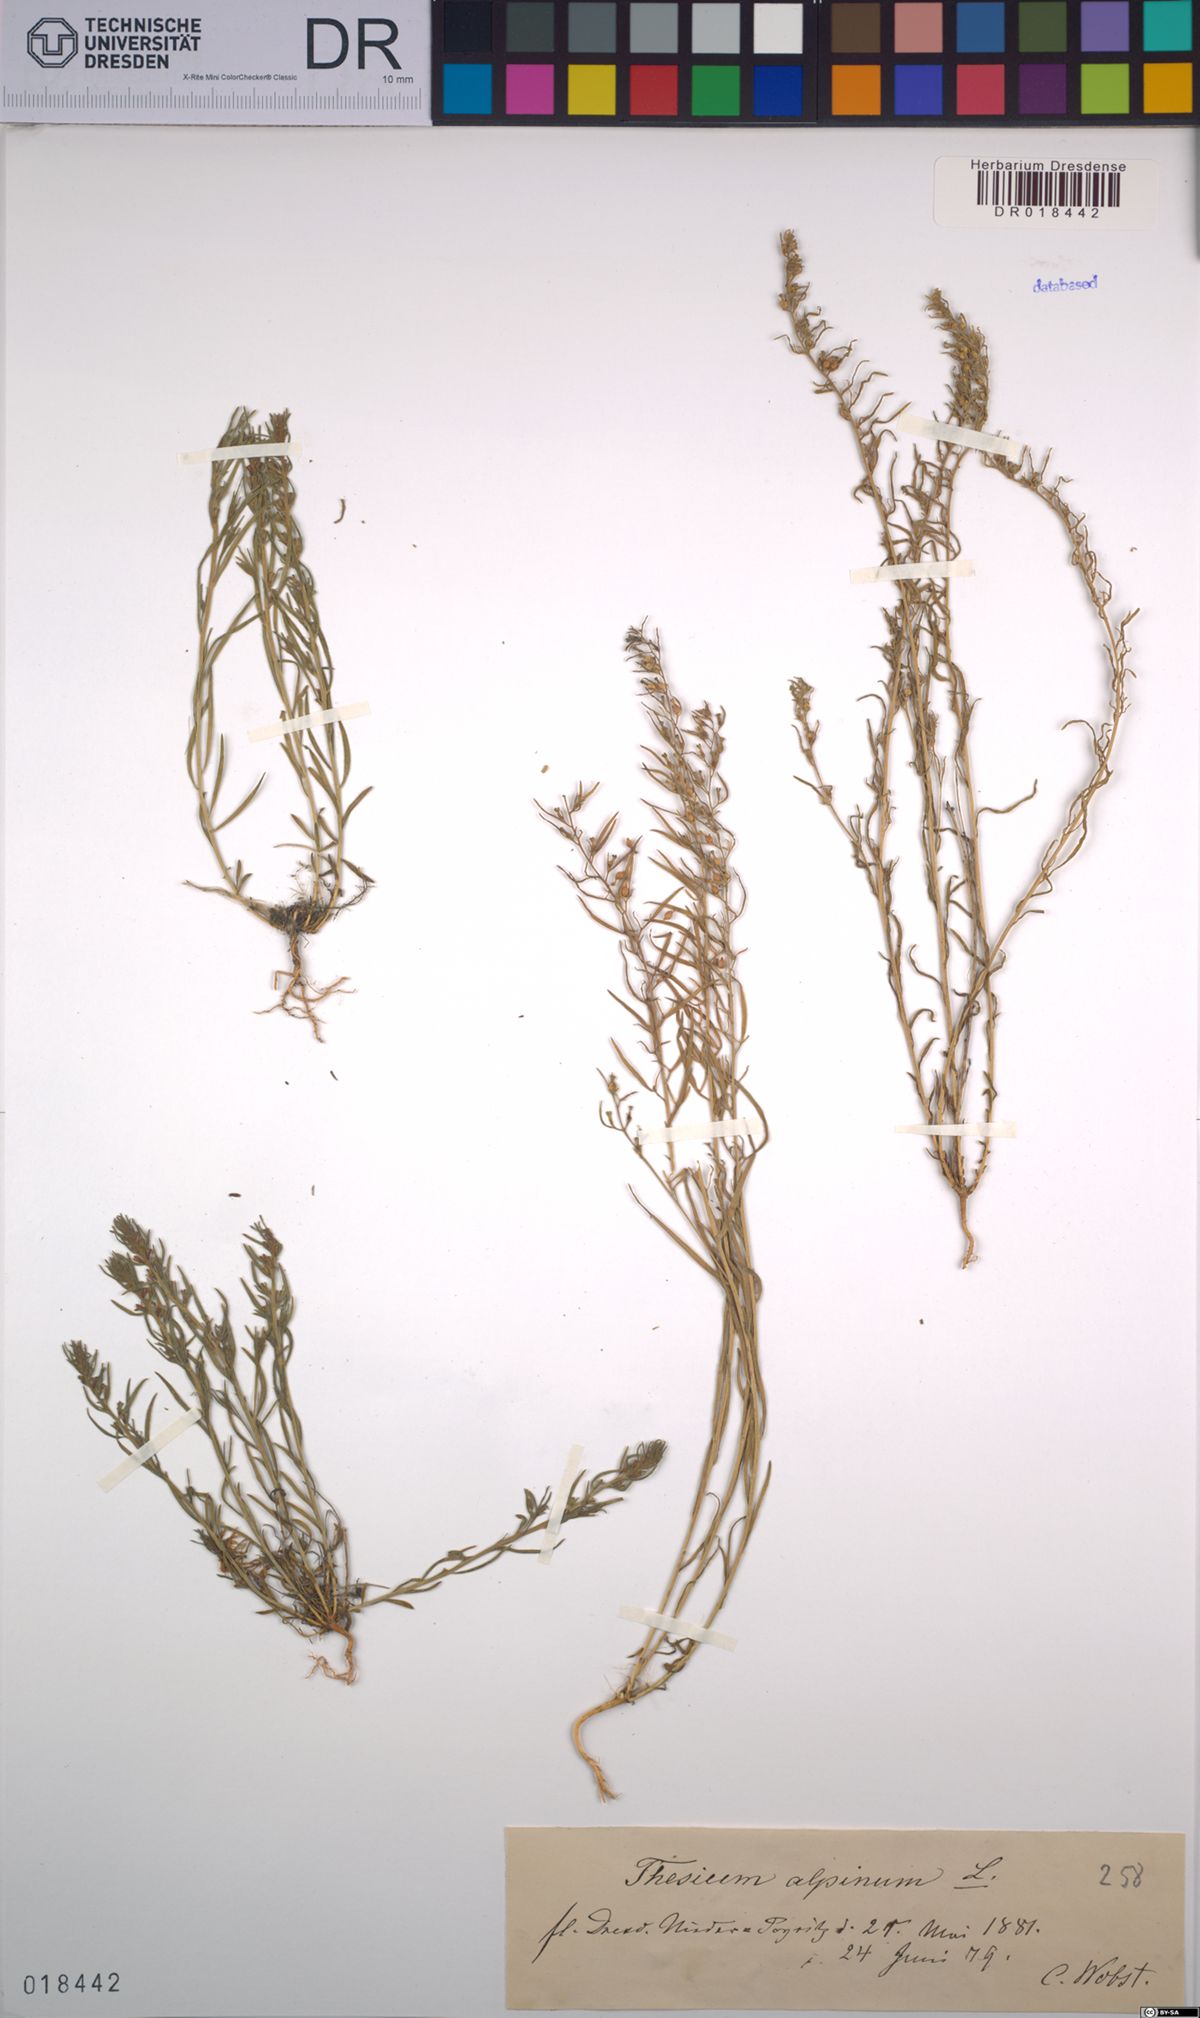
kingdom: Plantae
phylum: Tracheophyta
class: Magnoliopsida
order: Santalales
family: Thesiaceae
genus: Thesium
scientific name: Thesium alpinum
